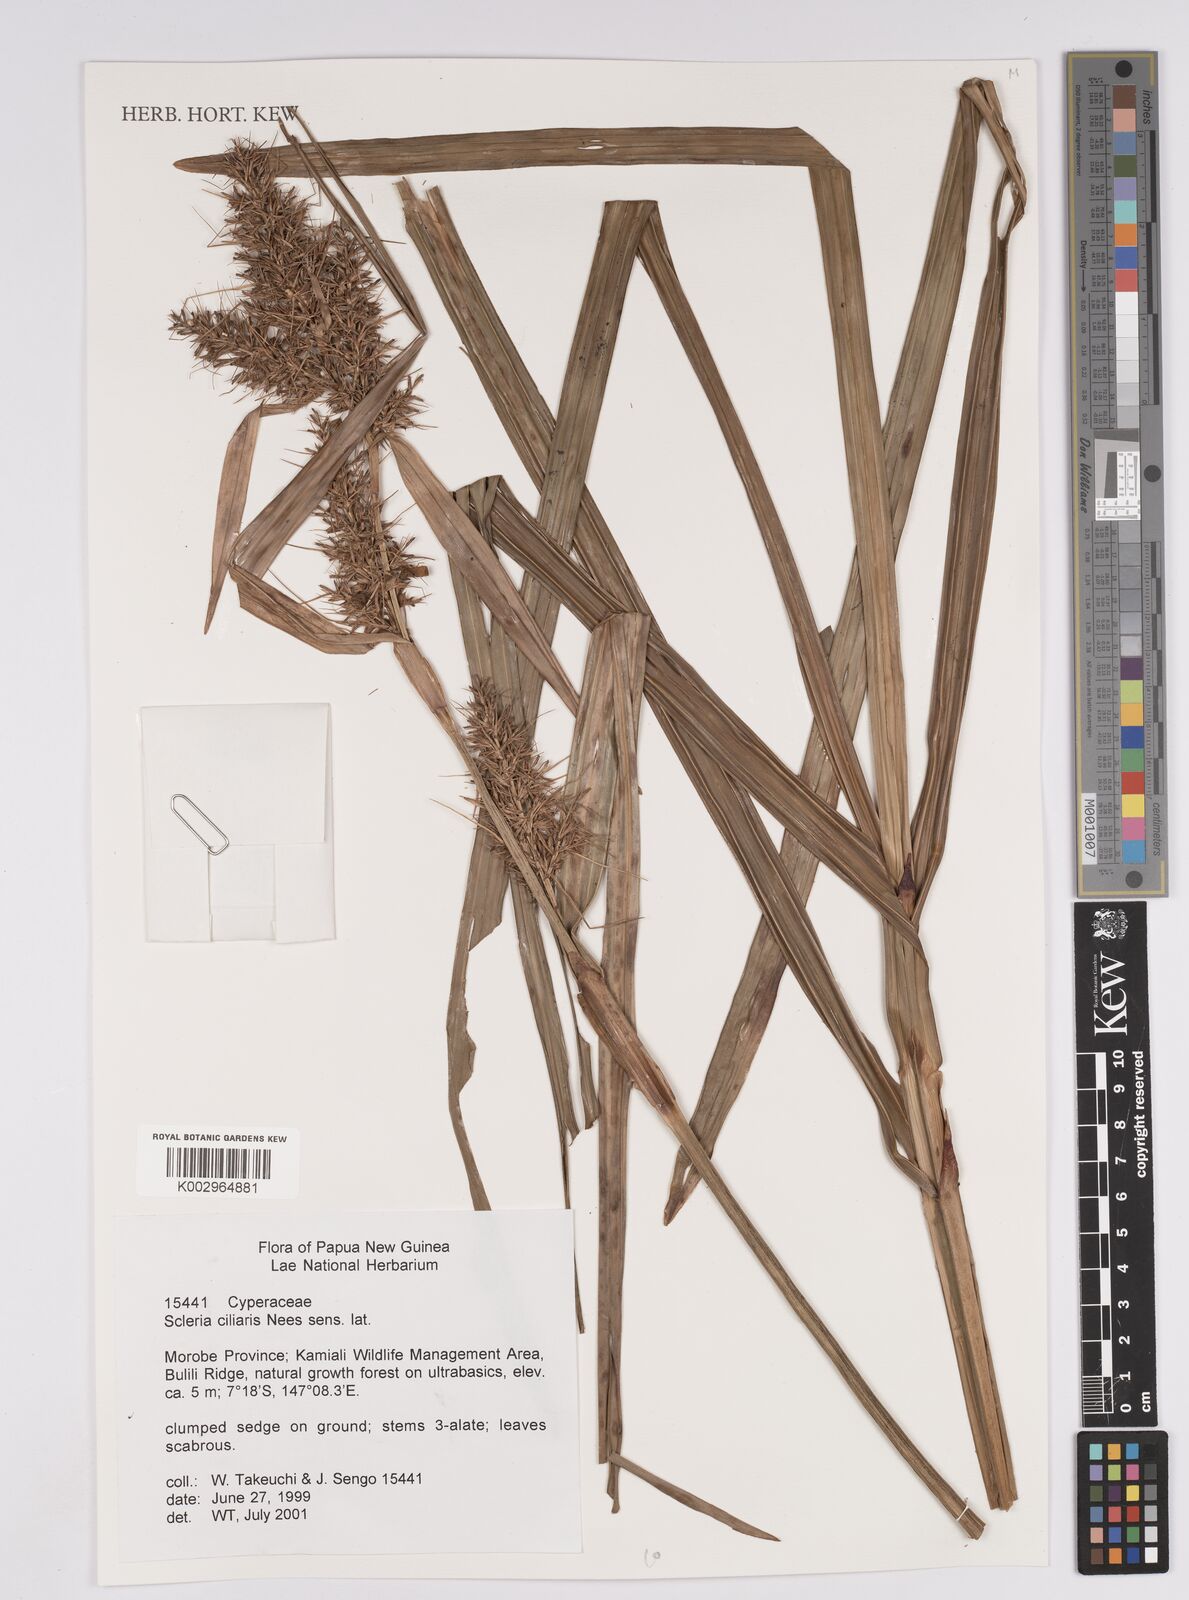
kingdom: Plantae
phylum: Tracheophyta
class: Liliopsida
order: Poales
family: Cyperaceae
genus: Scleria
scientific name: Scleria ciliaris
